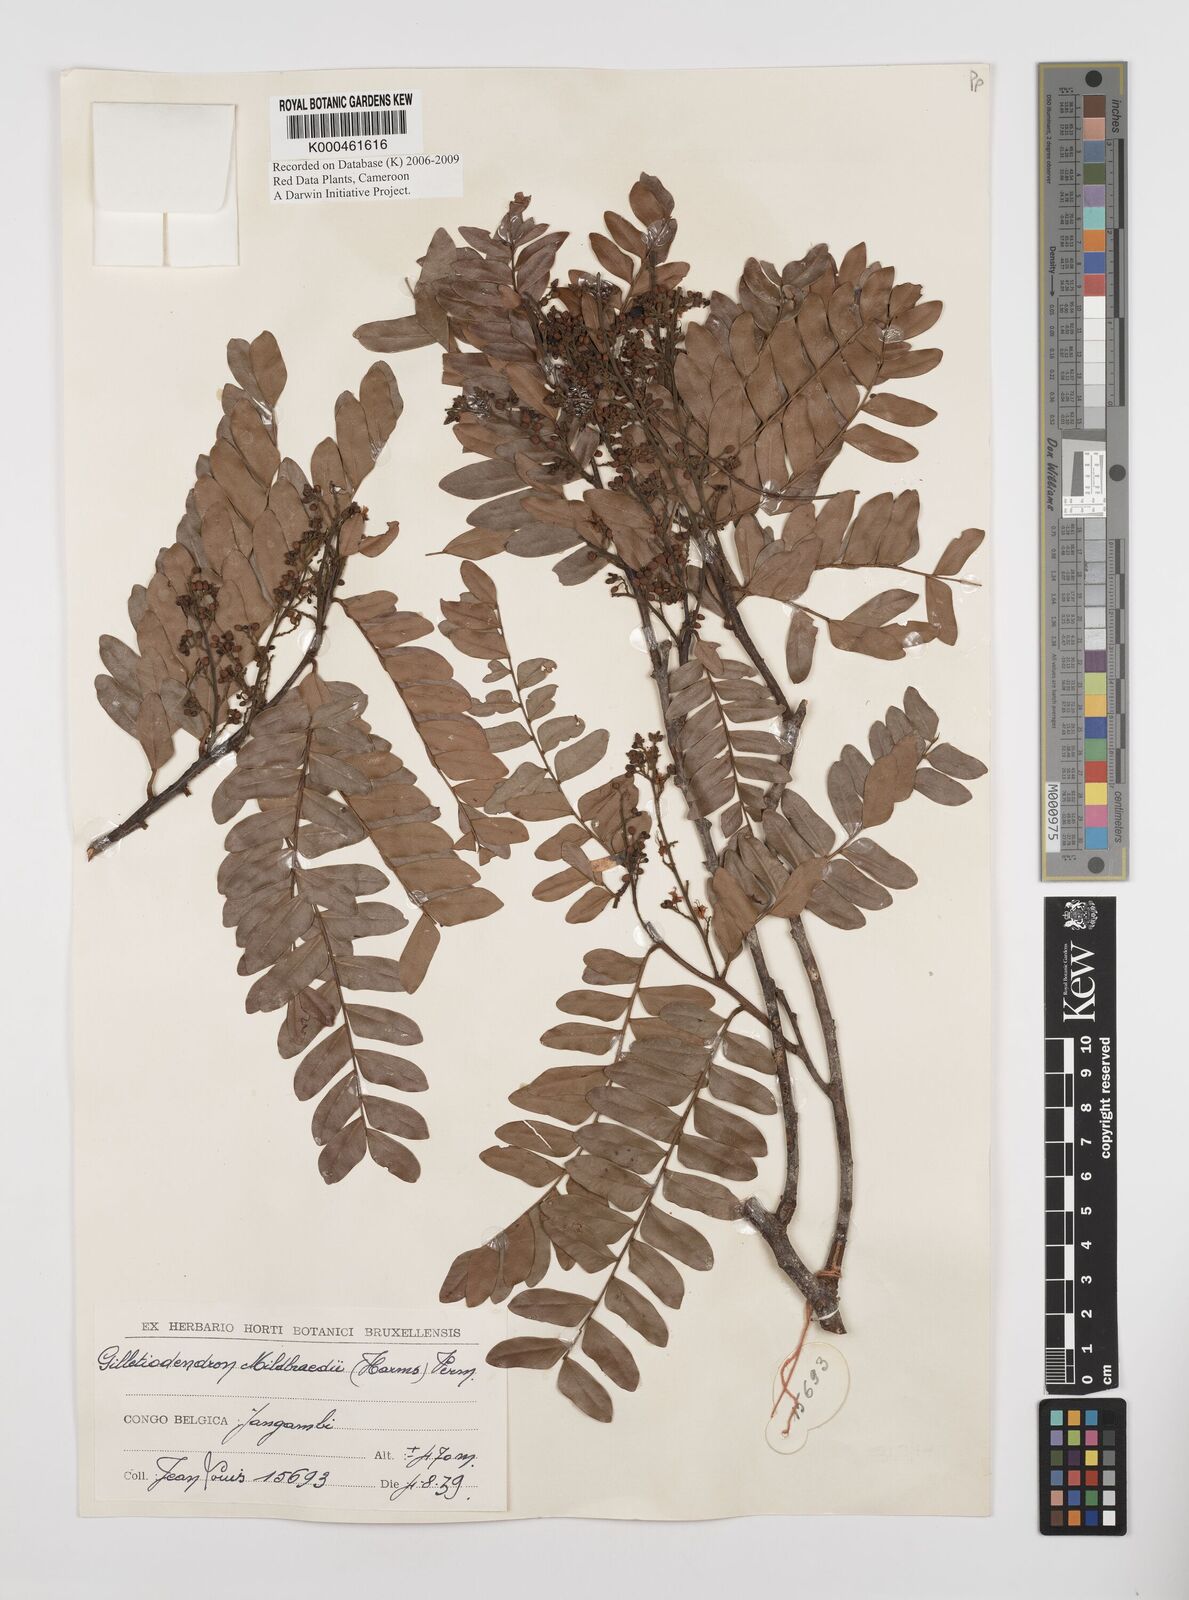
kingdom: Plantae
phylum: Tracheophyta
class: Magnoliopsida
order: Fabales
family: Fabaceae
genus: Gilletiodendron
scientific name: Gilletiodendron mildbraedii
